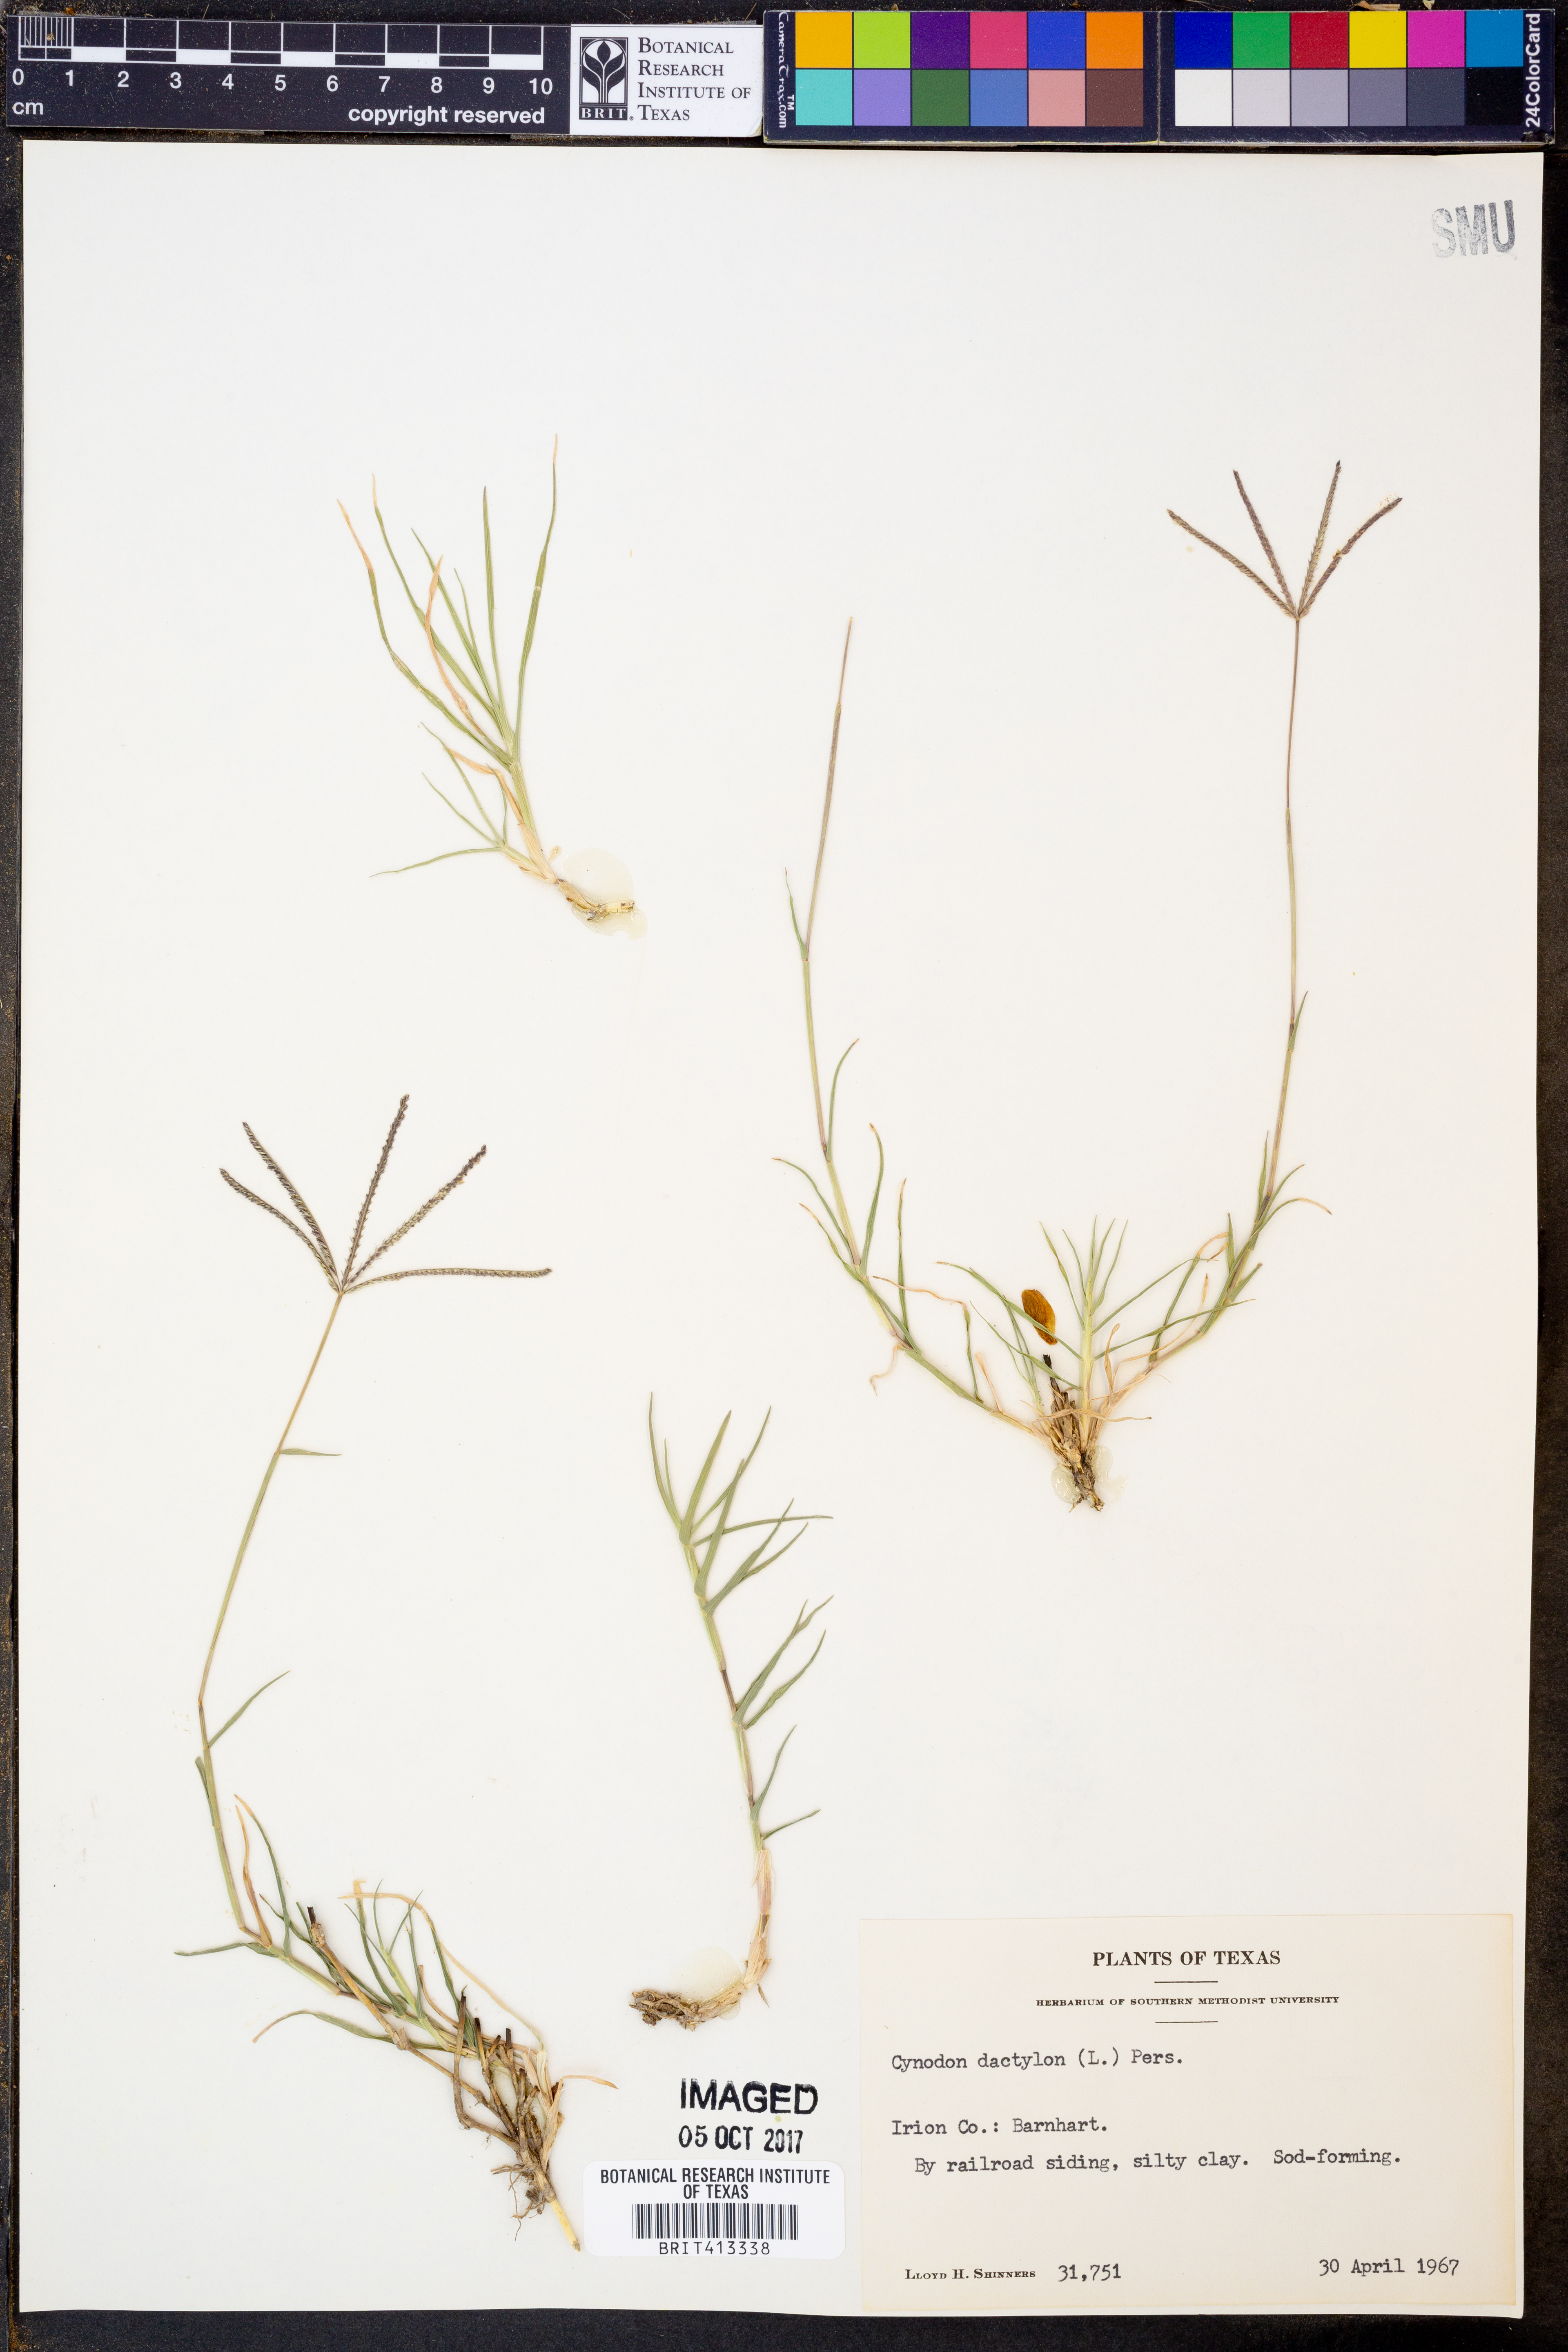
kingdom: Plantae
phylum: Tracheophyta
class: Liliopsida
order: Poales
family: Poaceae
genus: Cynodon
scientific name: Cynodon dactylon
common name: Bermuda grass
